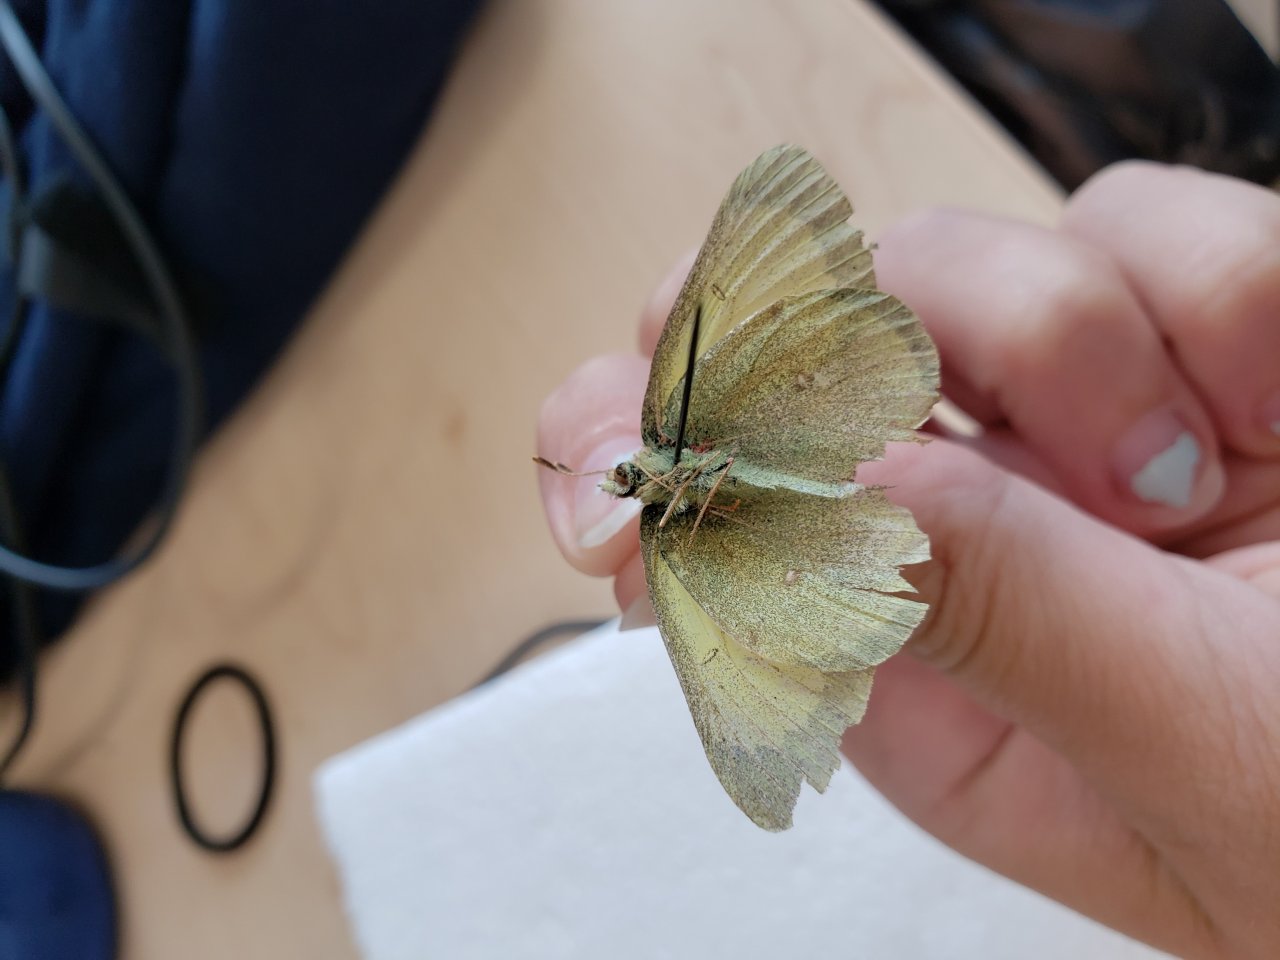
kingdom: Animalia
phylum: Arthropoda
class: Insecta
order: Lepidoptera
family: Pieridae
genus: Colias
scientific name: Colias pelidne
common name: Pelidne Sulphur
